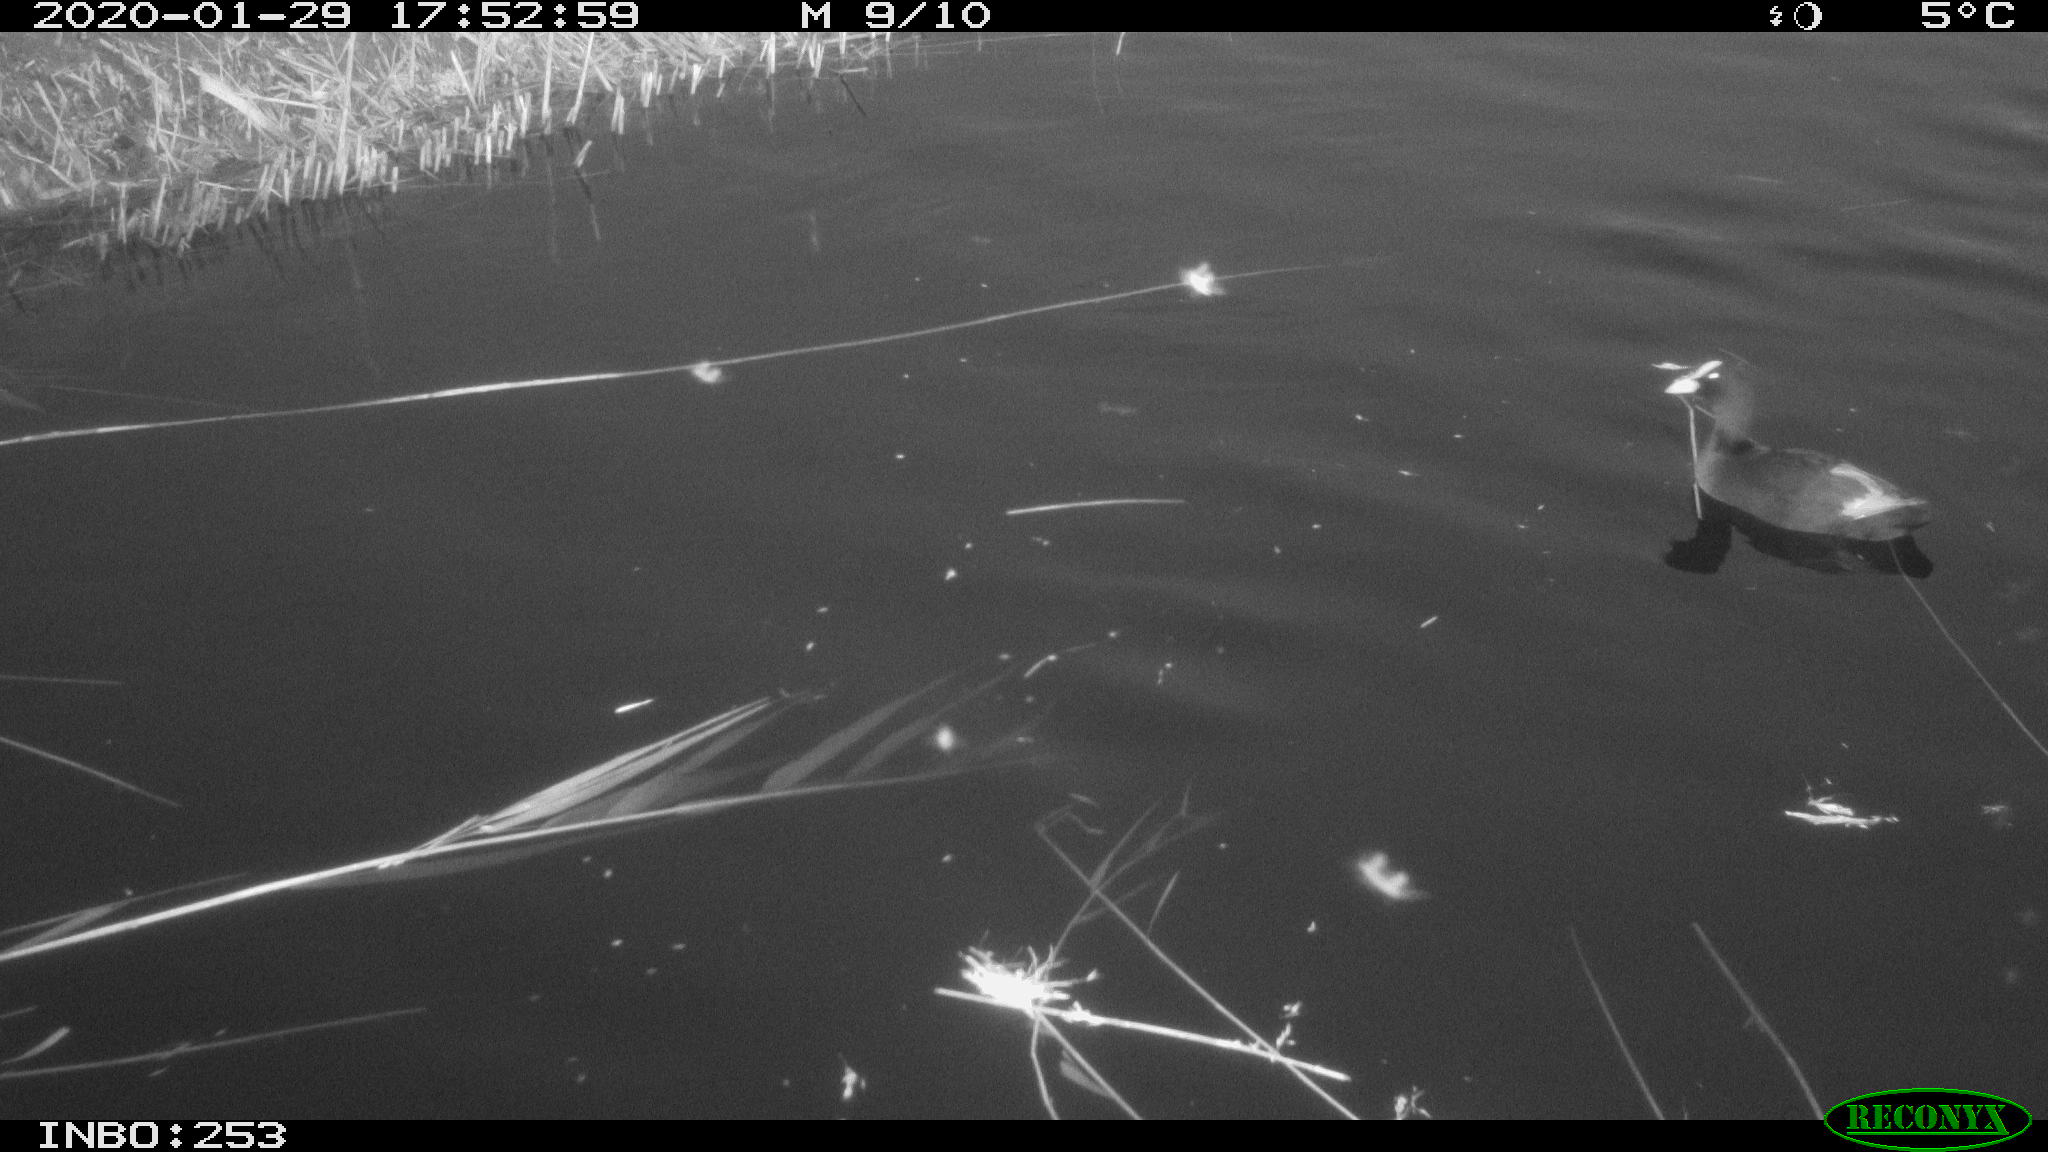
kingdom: Animalia
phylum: Chordata
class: Aves
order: Gruiformes
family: Rallidae
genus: Fulica
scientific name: Fulica atra
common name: Eurasian coot
